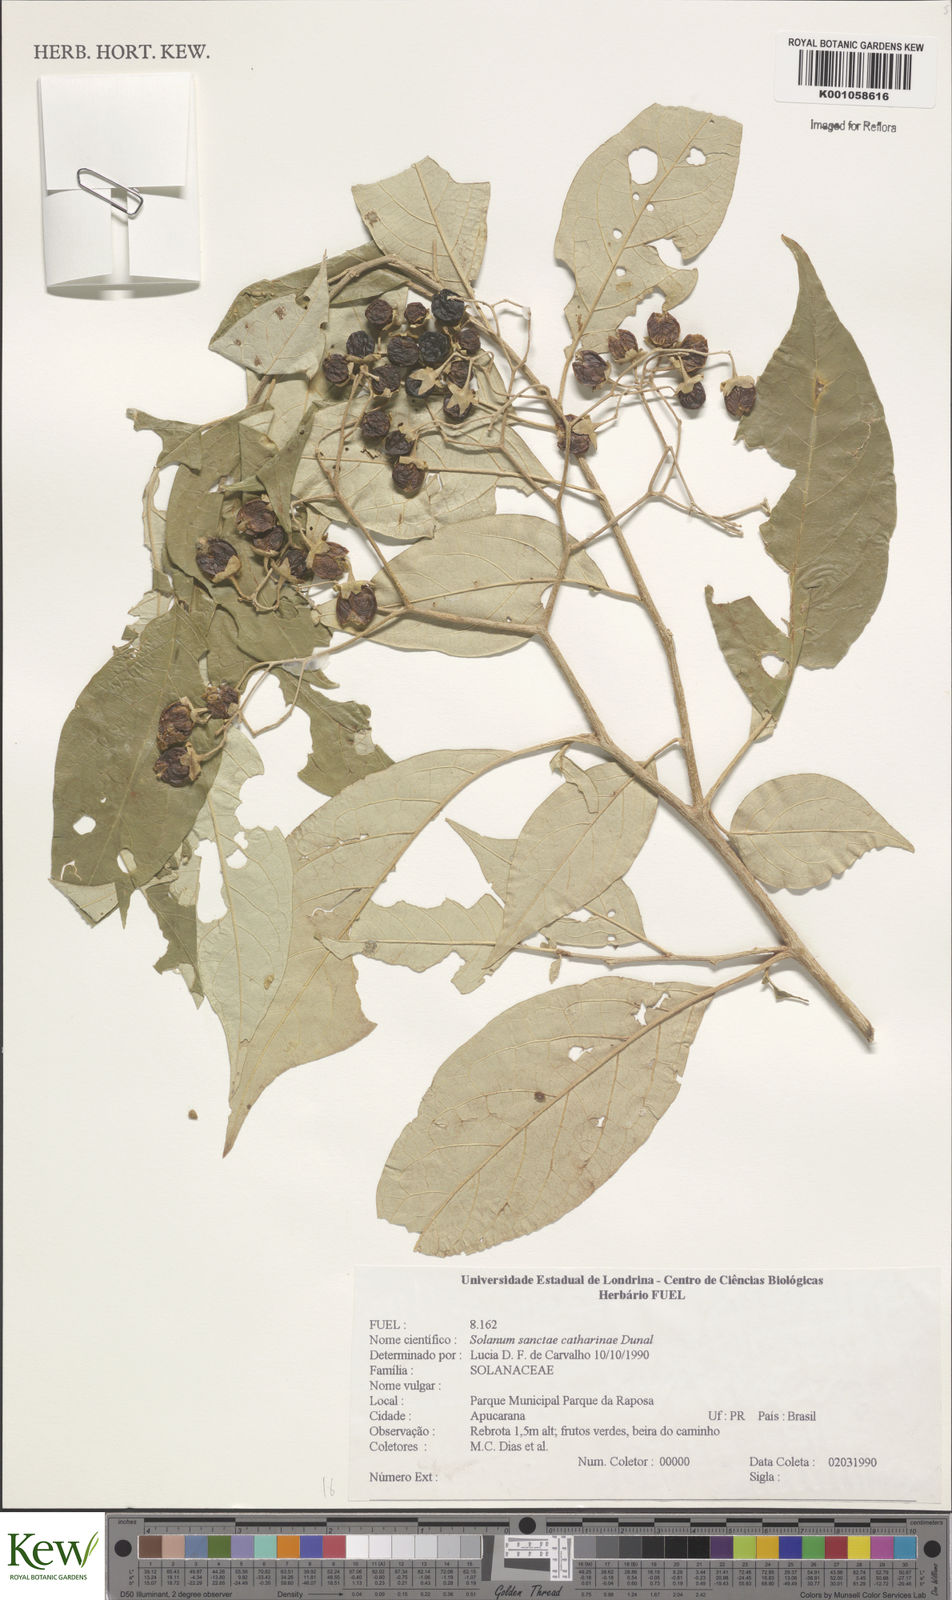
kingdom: Plantae
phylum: Tracheophyta
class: Magnoliopsida
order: Solanales
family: Solanaceae
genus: Solanum
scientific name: Solanum sanctae-catharinae
